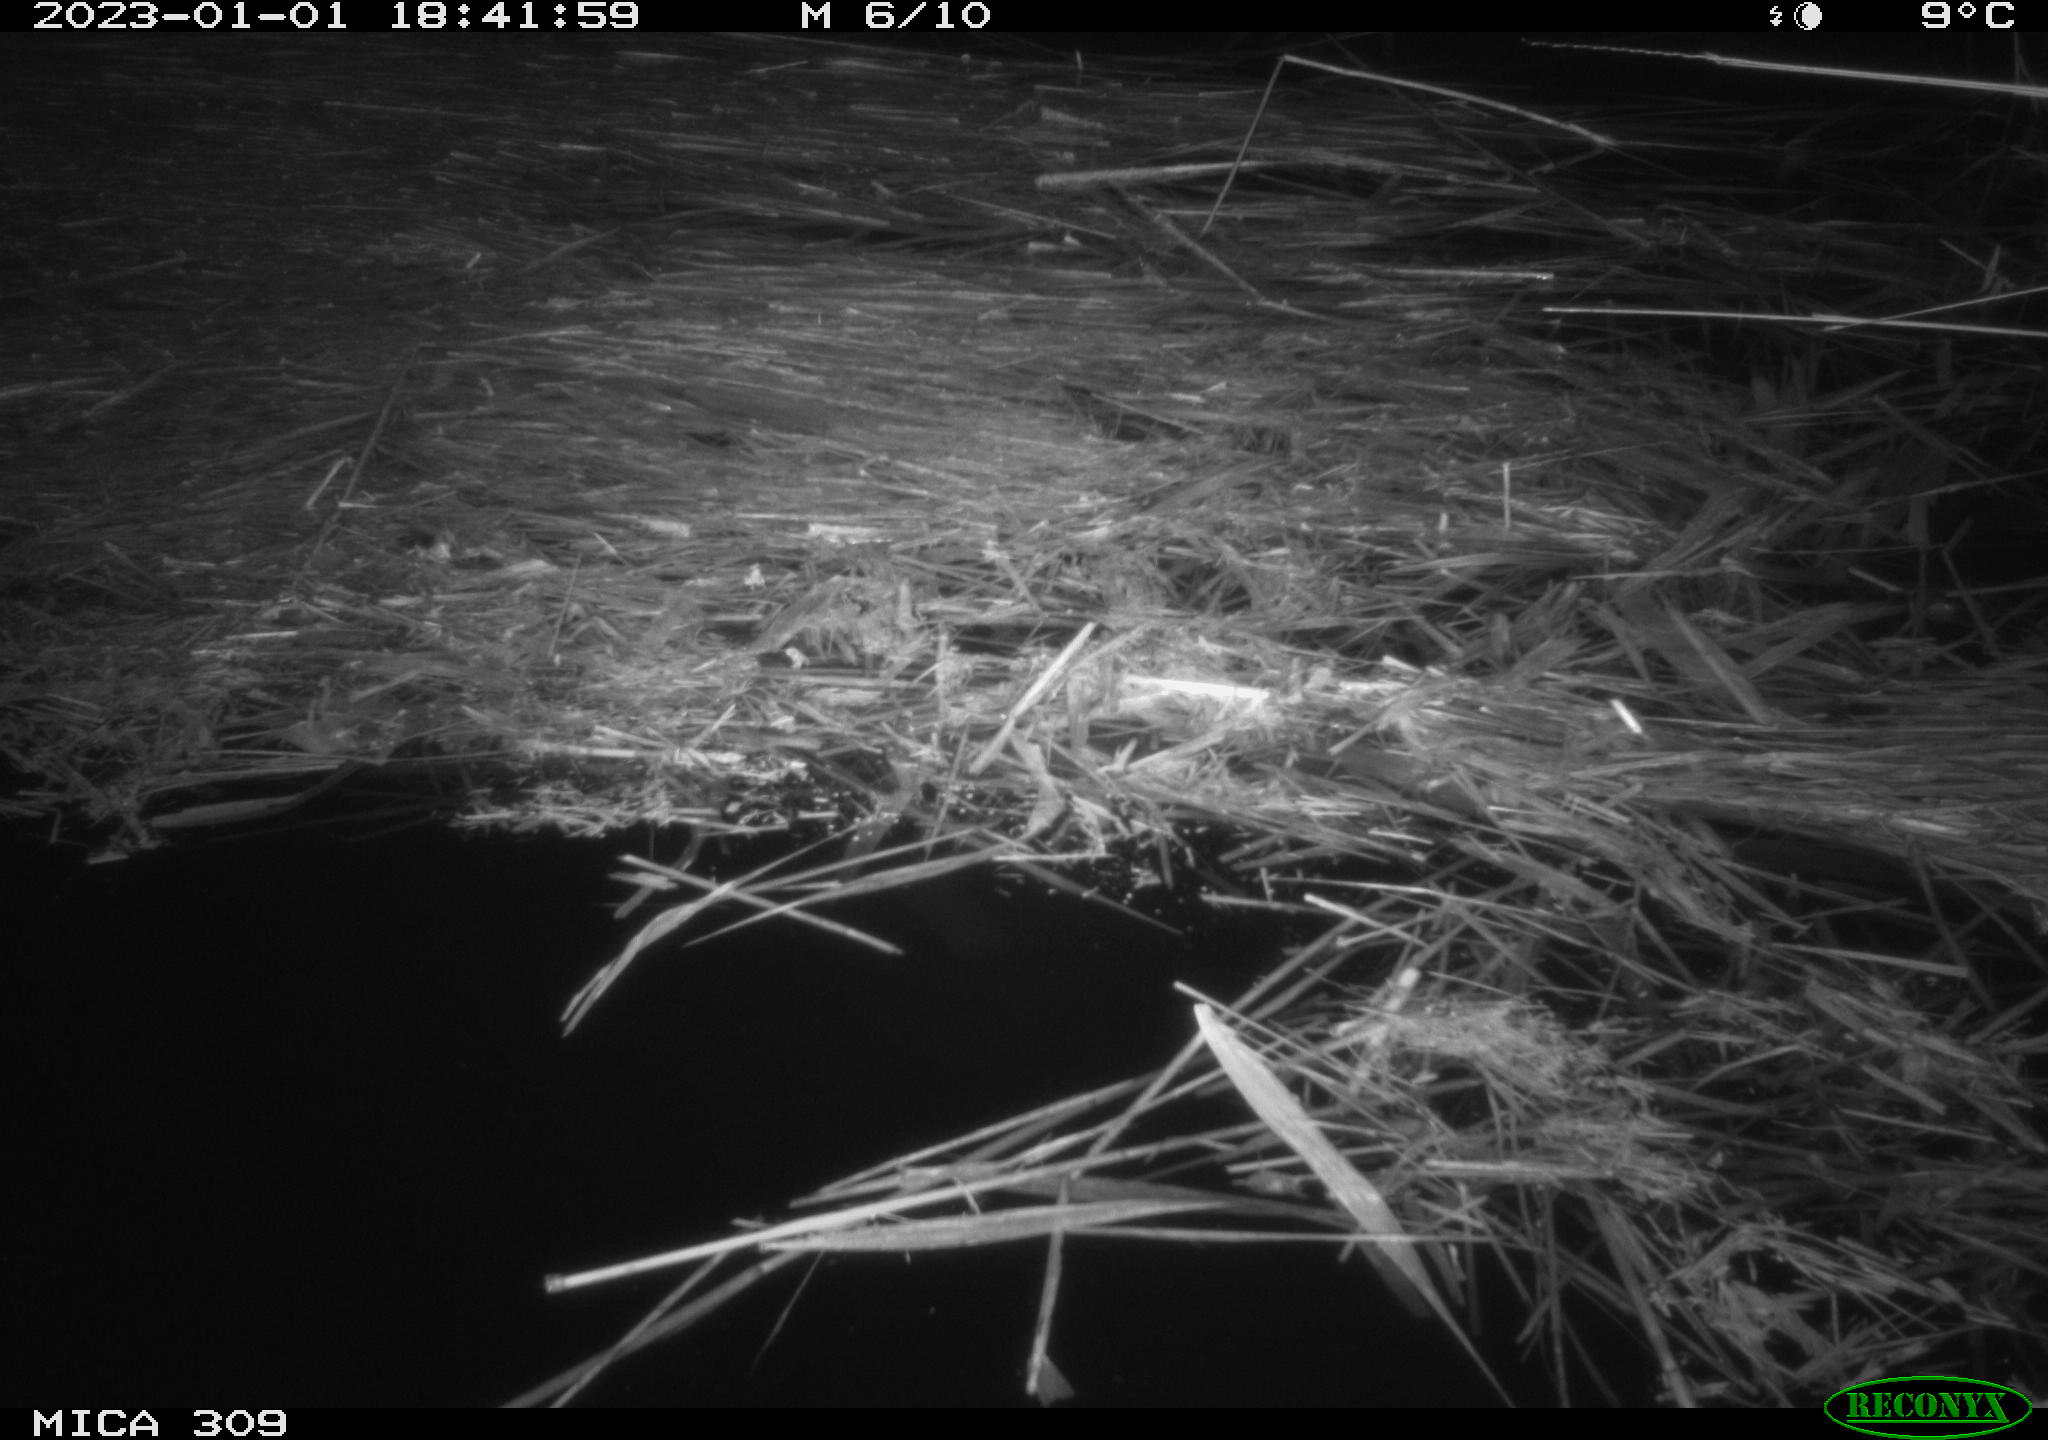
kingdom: Animalia
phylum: Chordata
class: Mammalia
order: Rodentia
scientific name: Rodentia
